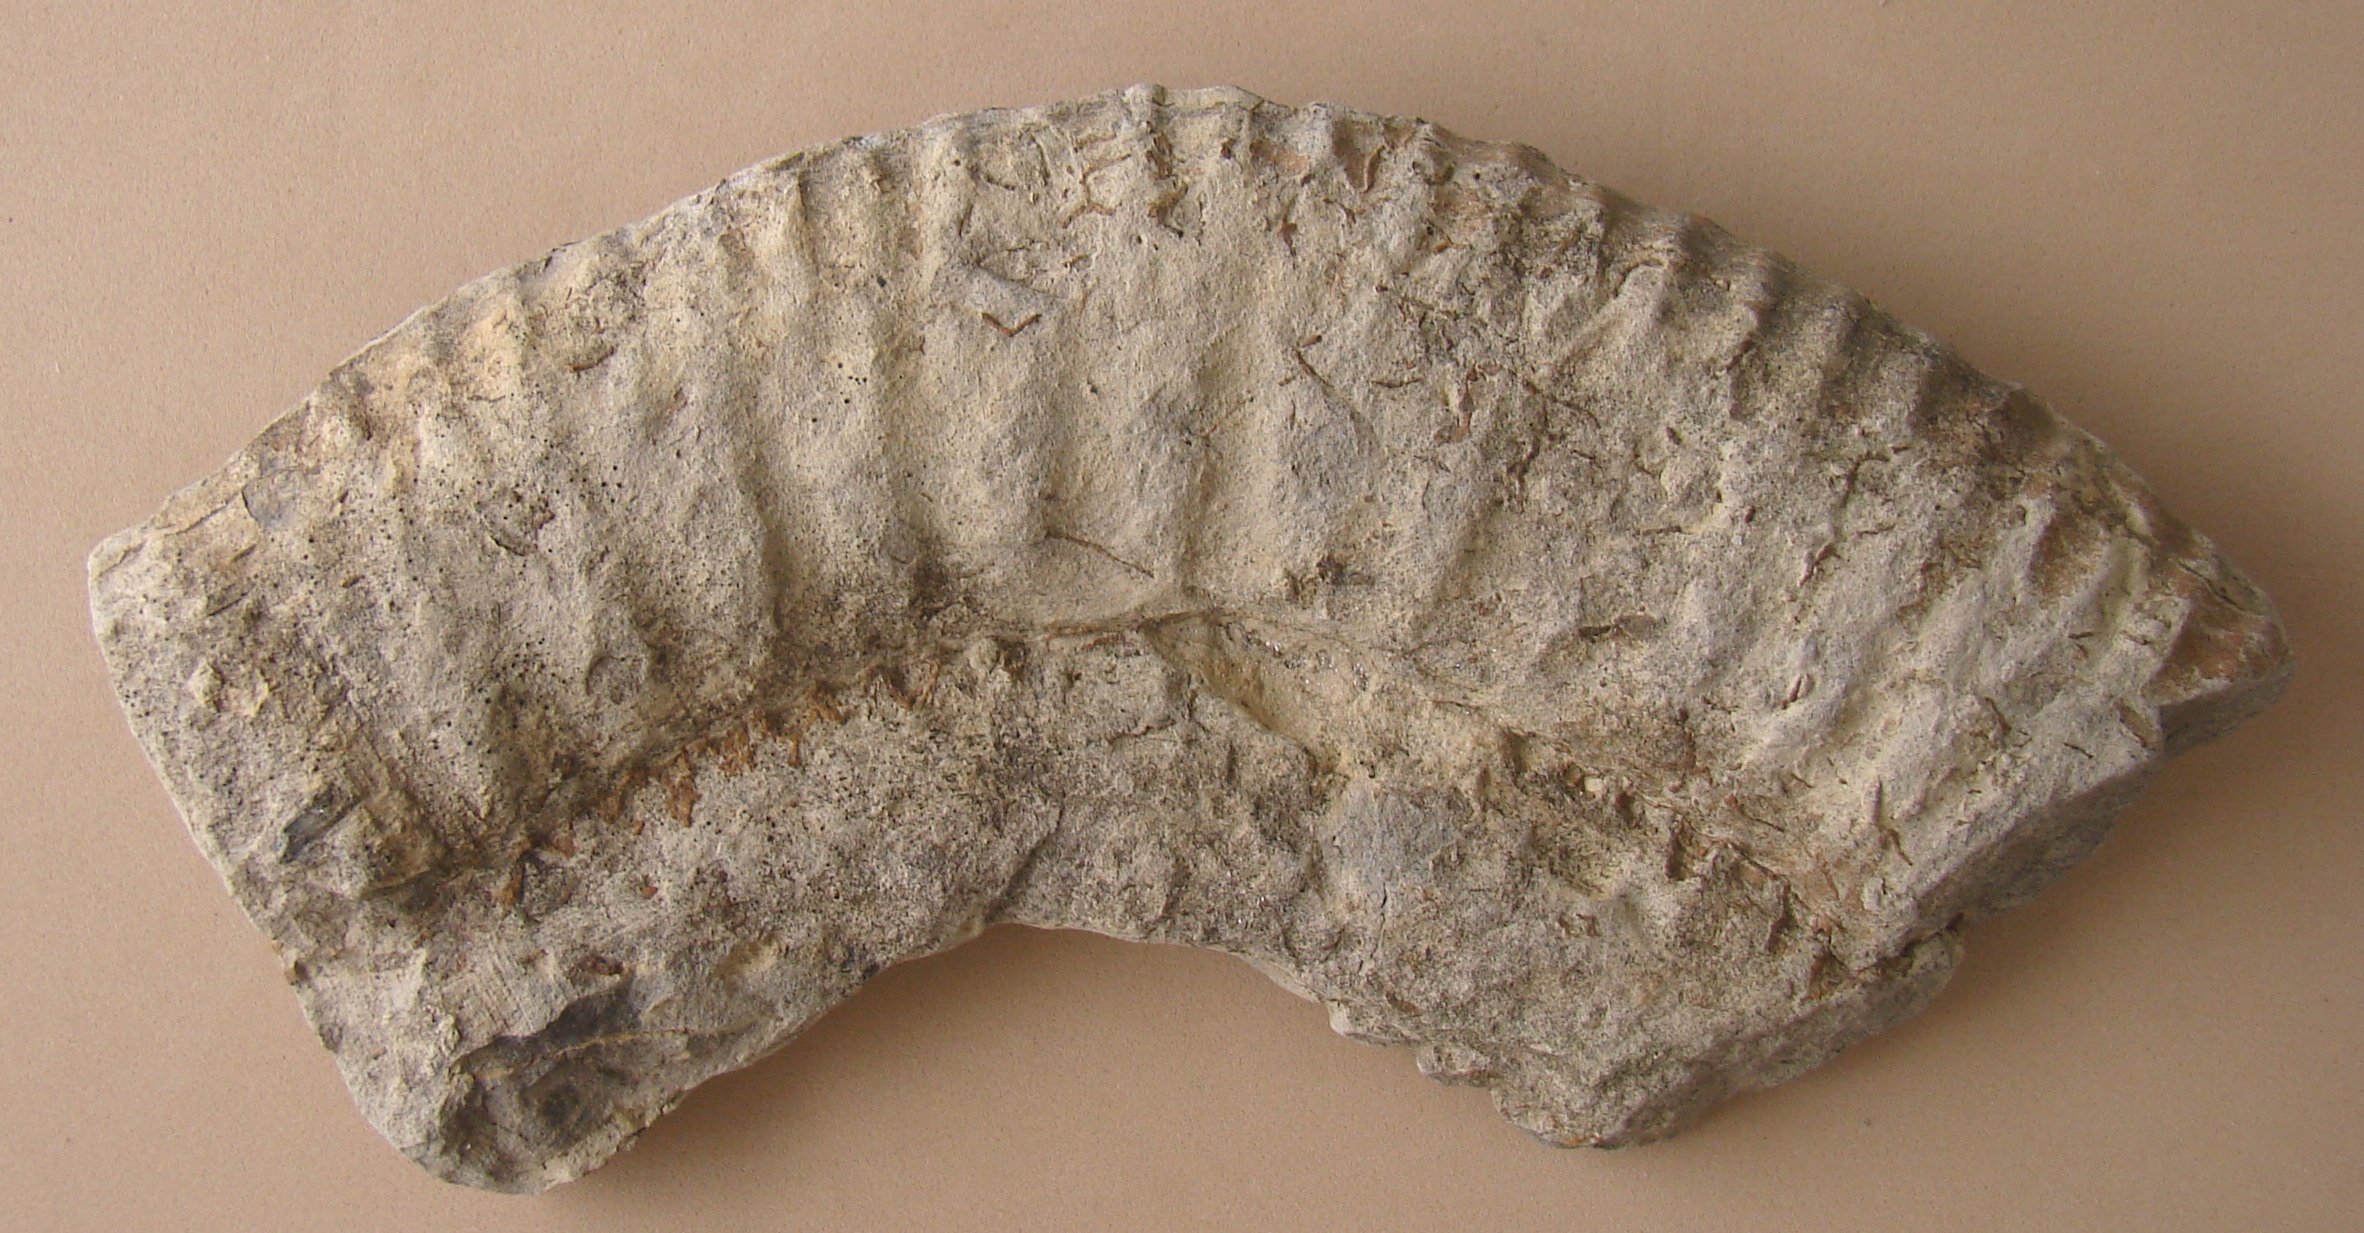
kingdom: Animalia
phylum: Mollusca
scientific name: Mollusca
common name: Mollusca
